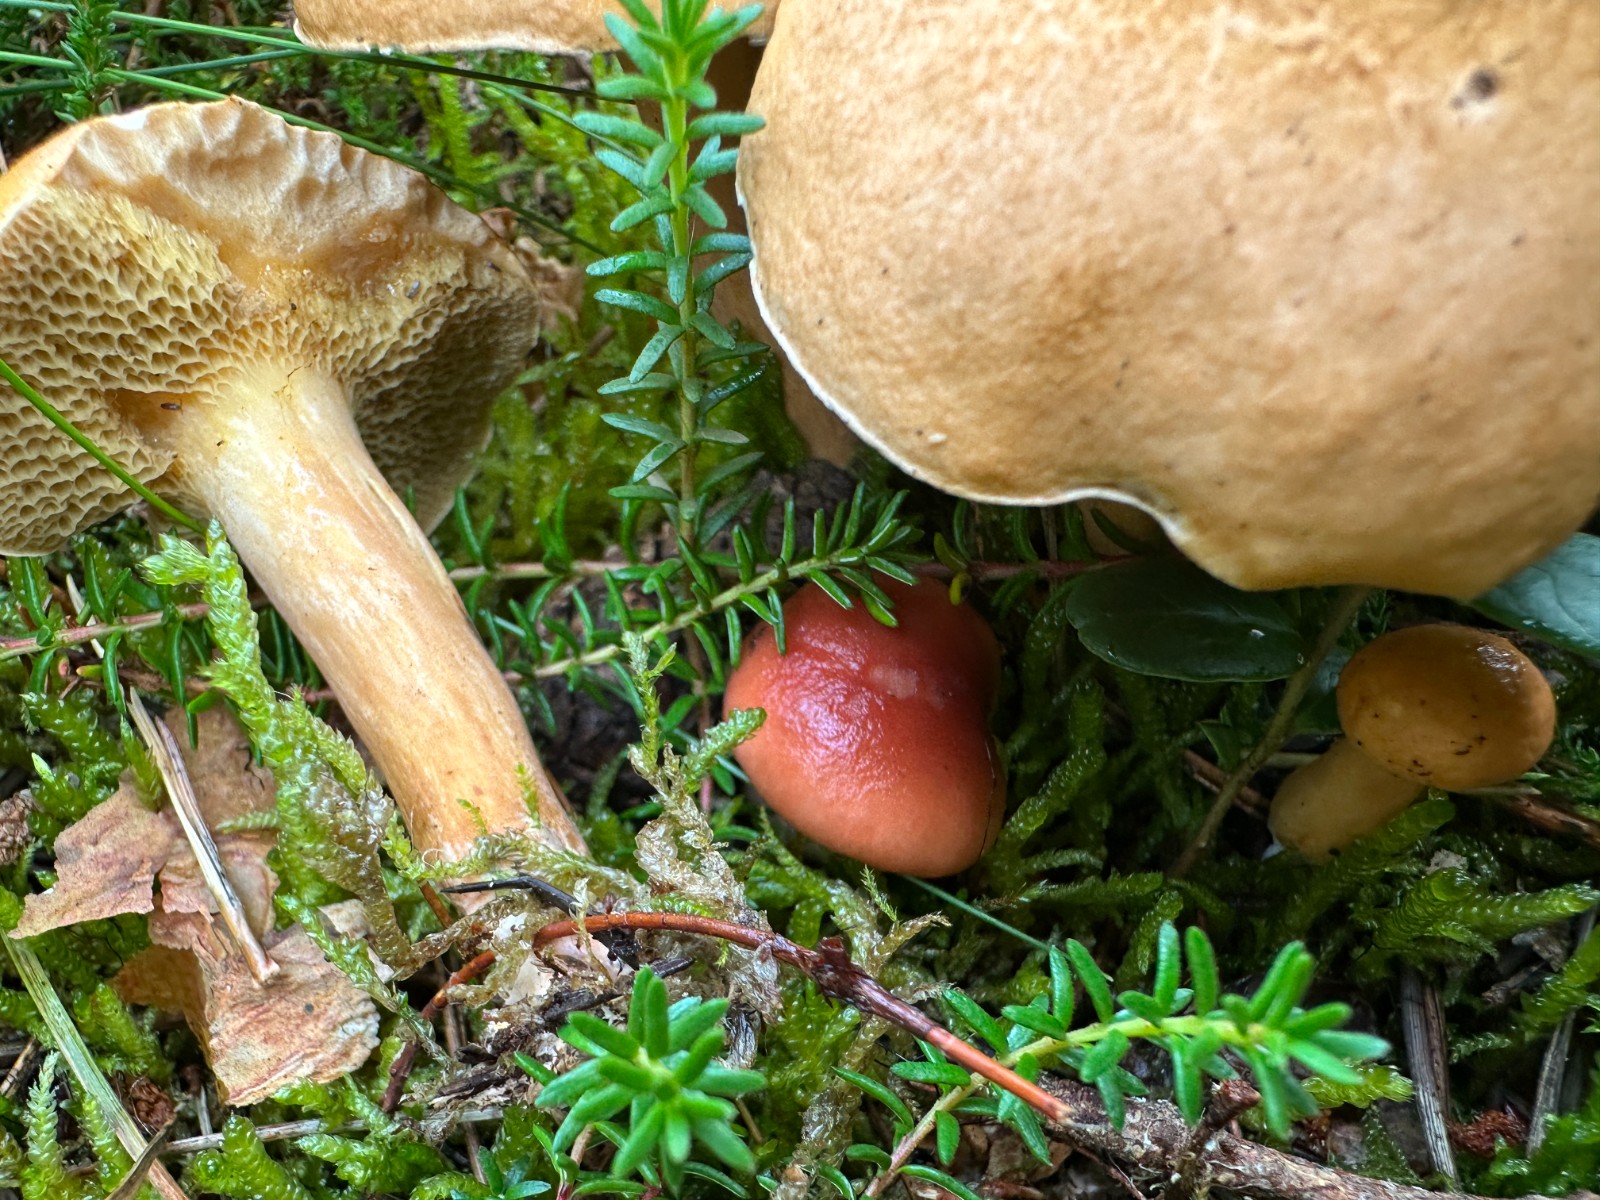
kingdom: Fungi
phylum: Basidiomycota
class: Agaricomycetes
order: Boletales
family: Gomphidiaceae
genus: Gomphidius
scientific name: Gomphidius roseus
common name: rosenrød slimslør
